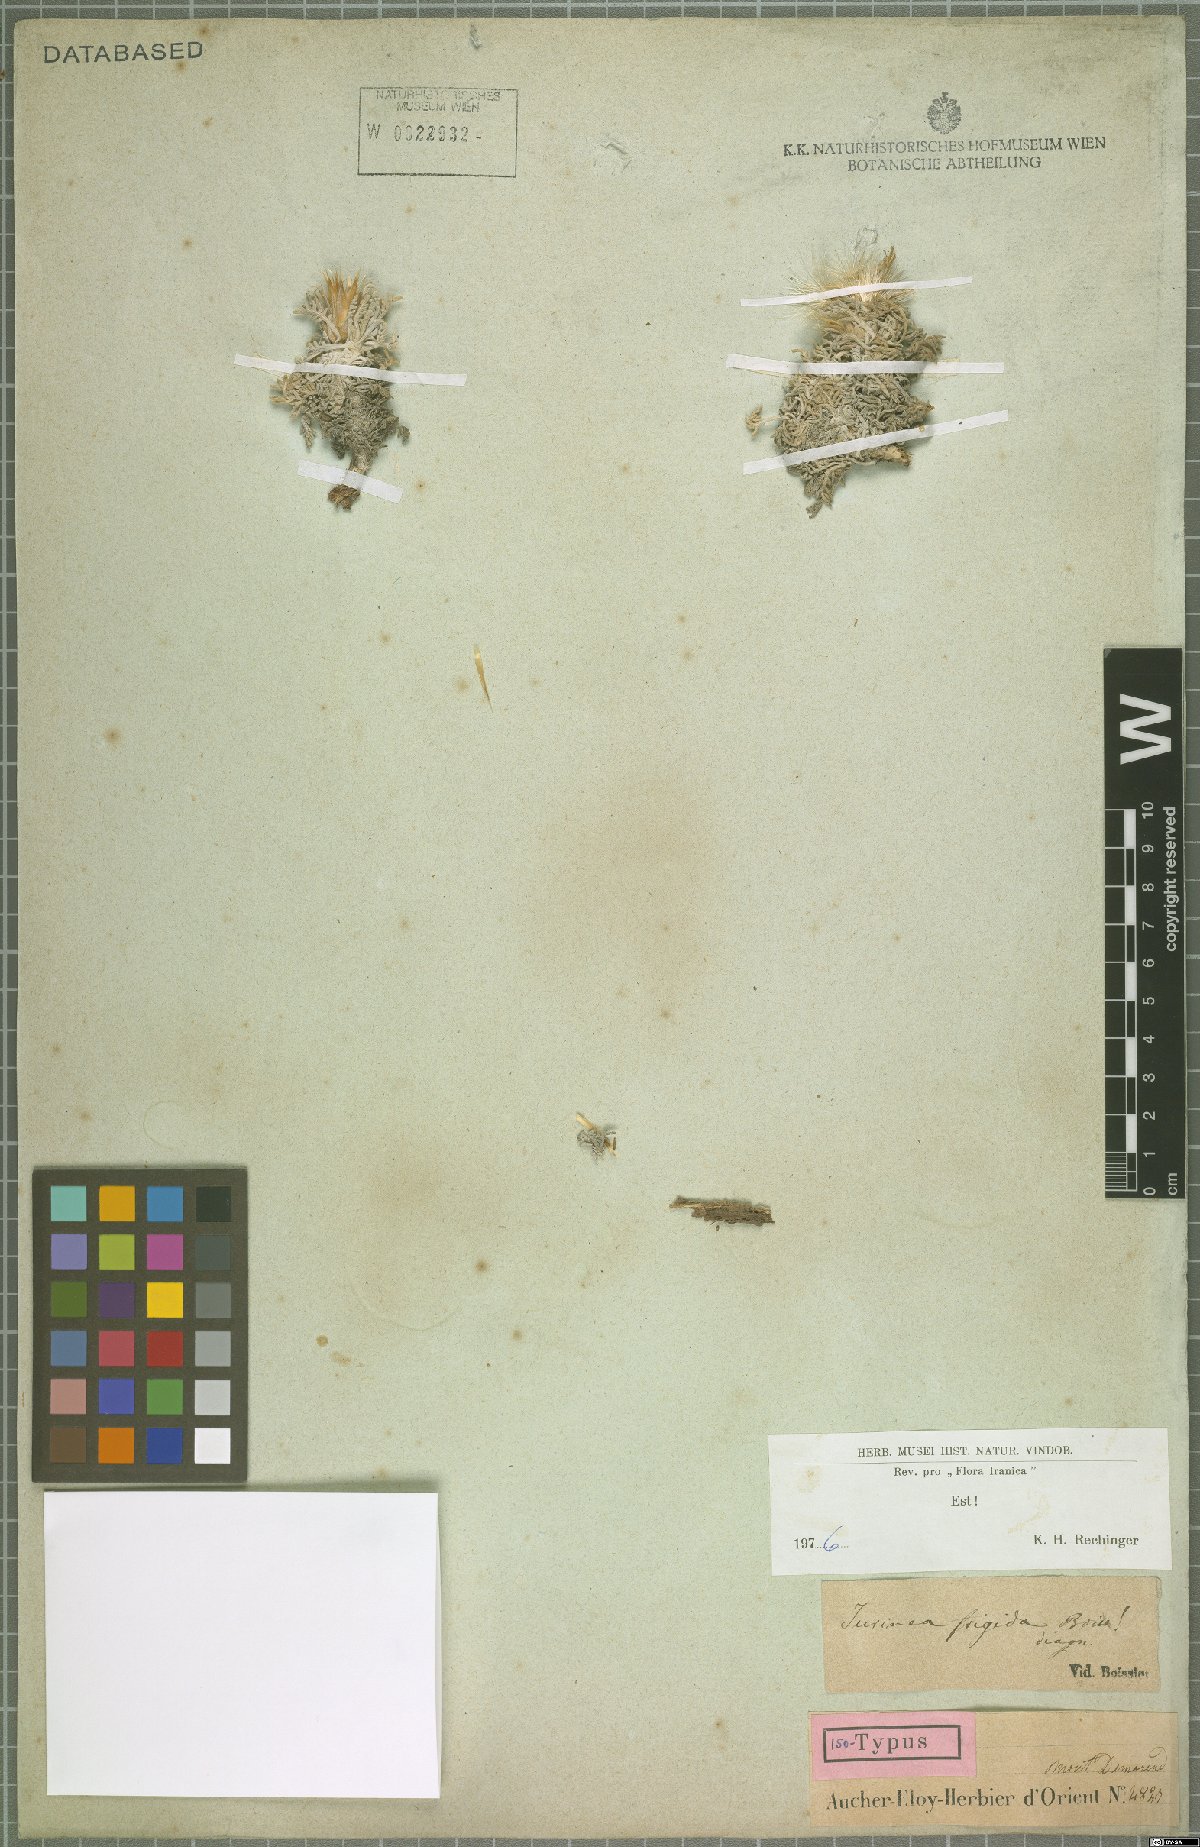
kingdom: Plantae
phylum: Tracheophyta
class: Magnoliopsida
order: Asterales
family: Asteraceae
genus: Jurinea
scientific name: Jurinea frigida
